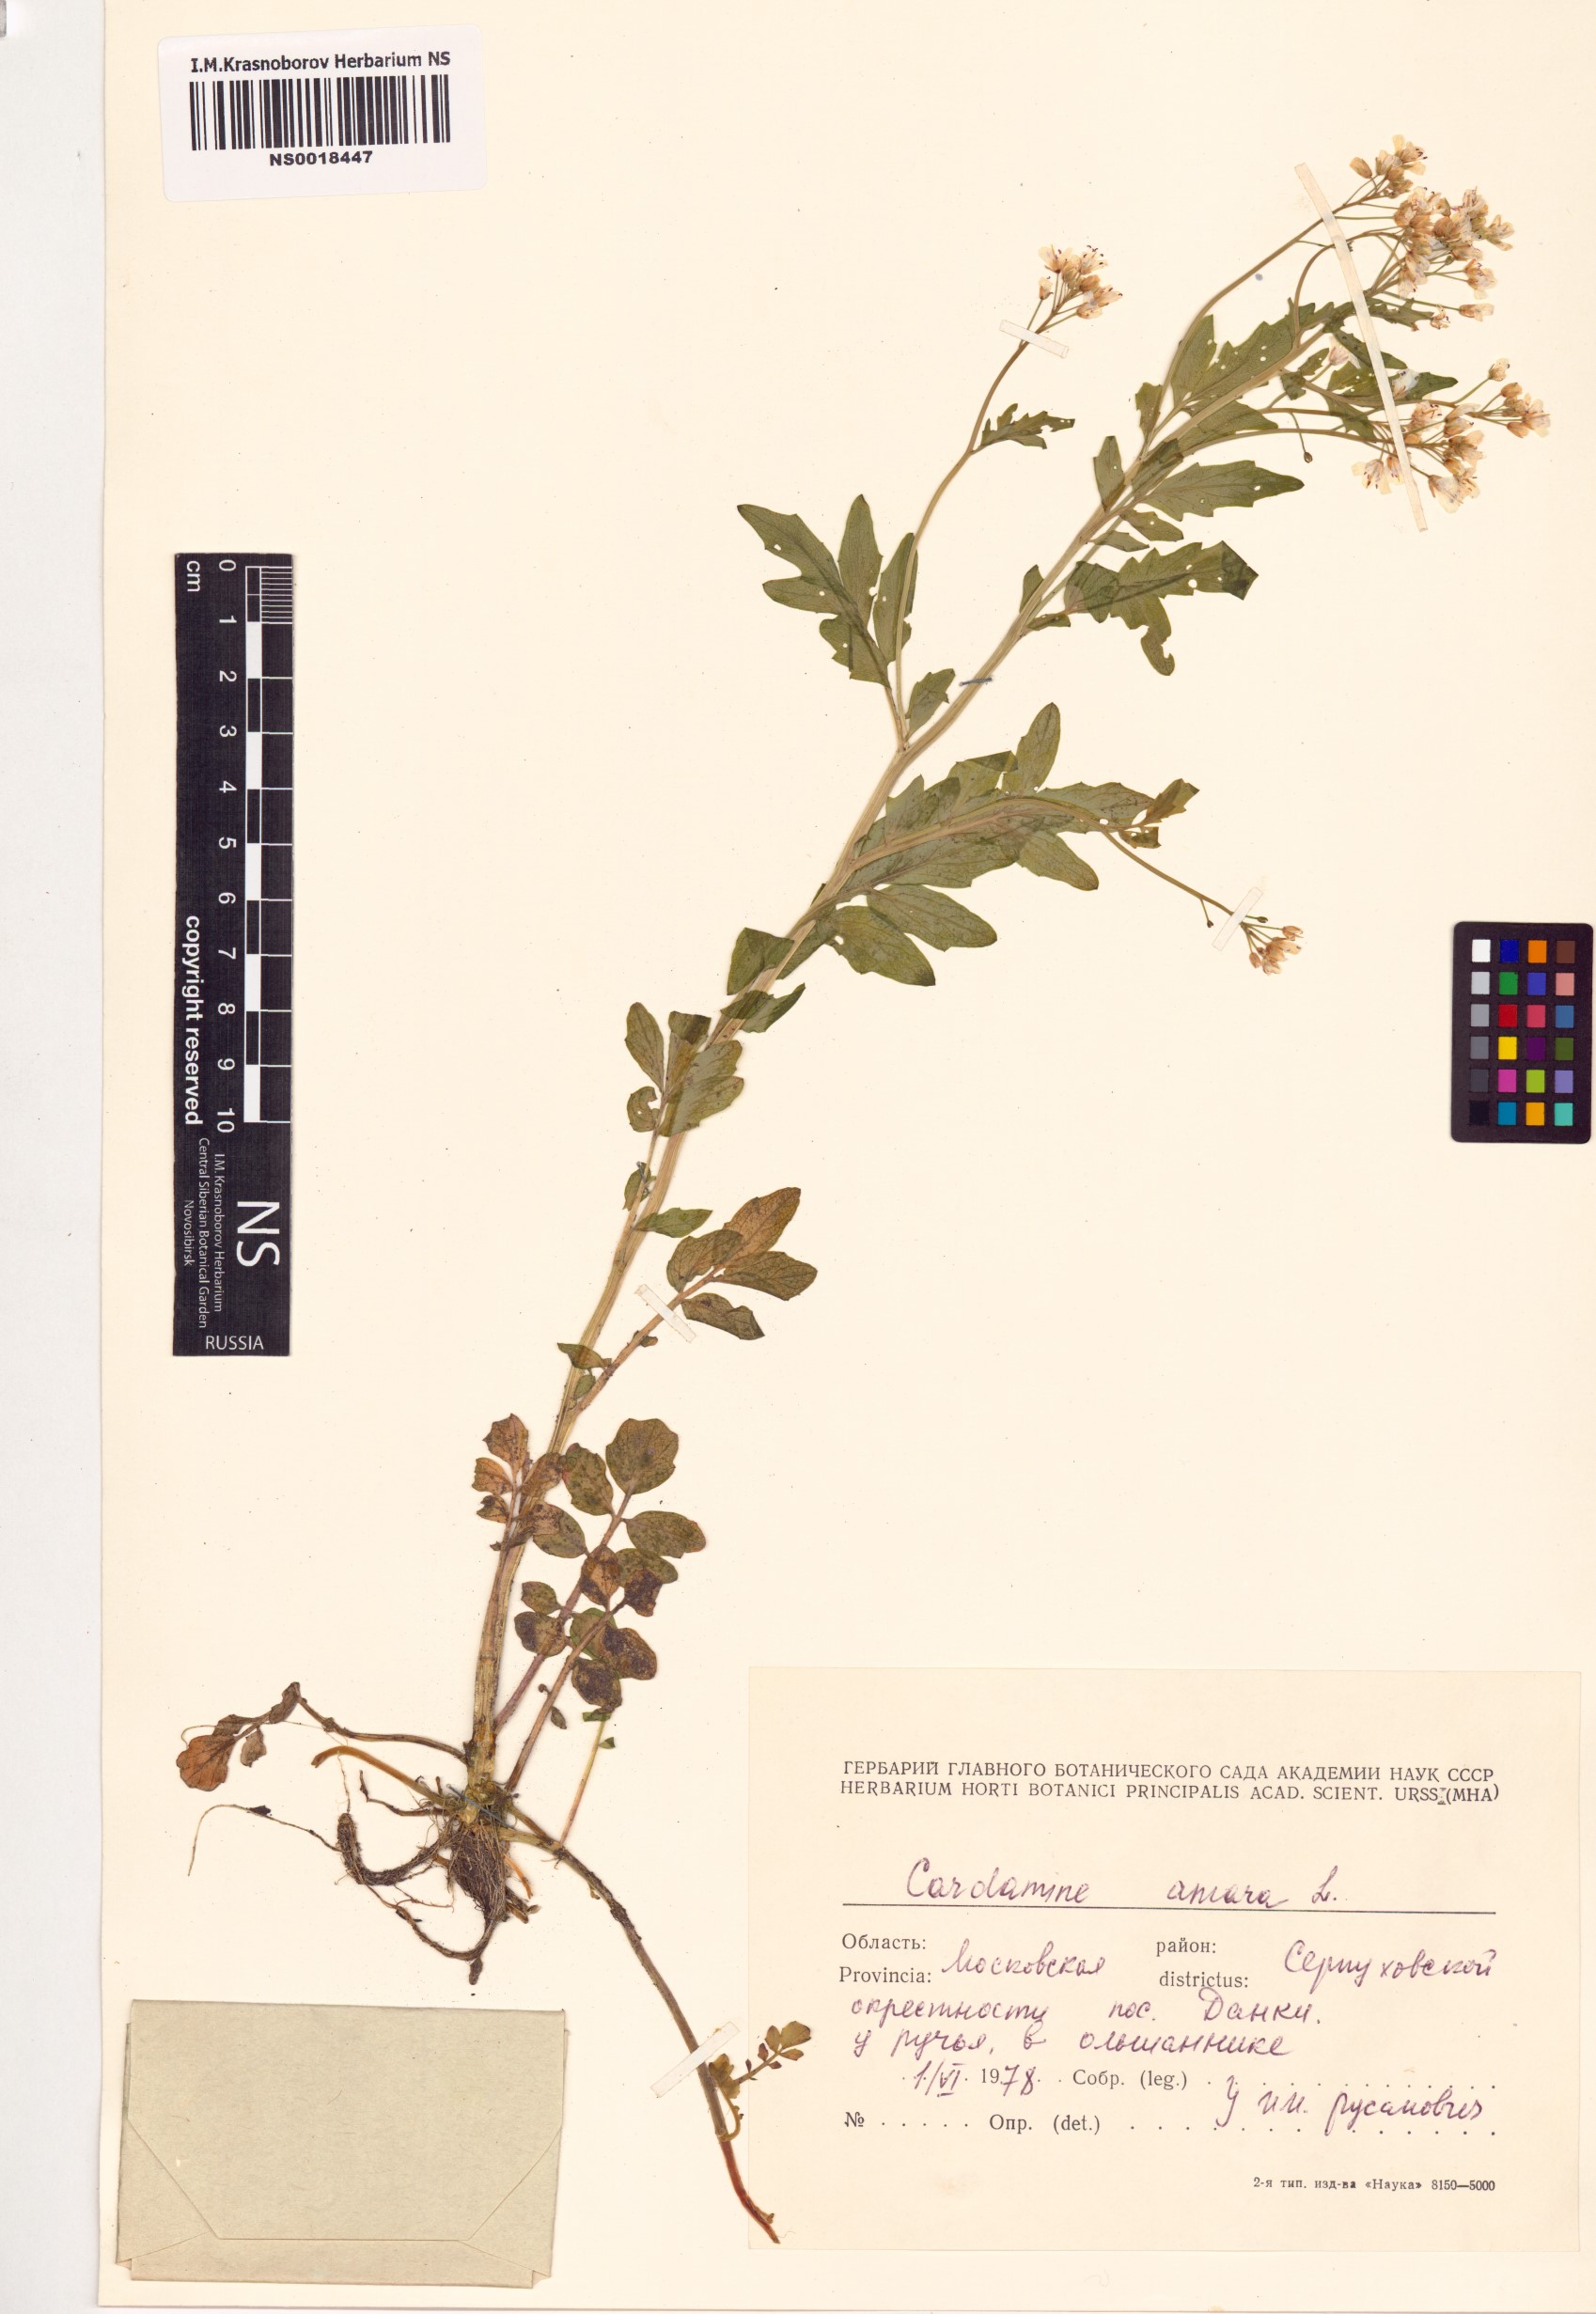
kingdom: Plantae
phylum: Tracheophyta
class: Magnoliopsida
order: Brassicales
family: Brassicaceae
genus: Cardamine
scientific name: Cardamine amara
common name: Large bitter-cress
